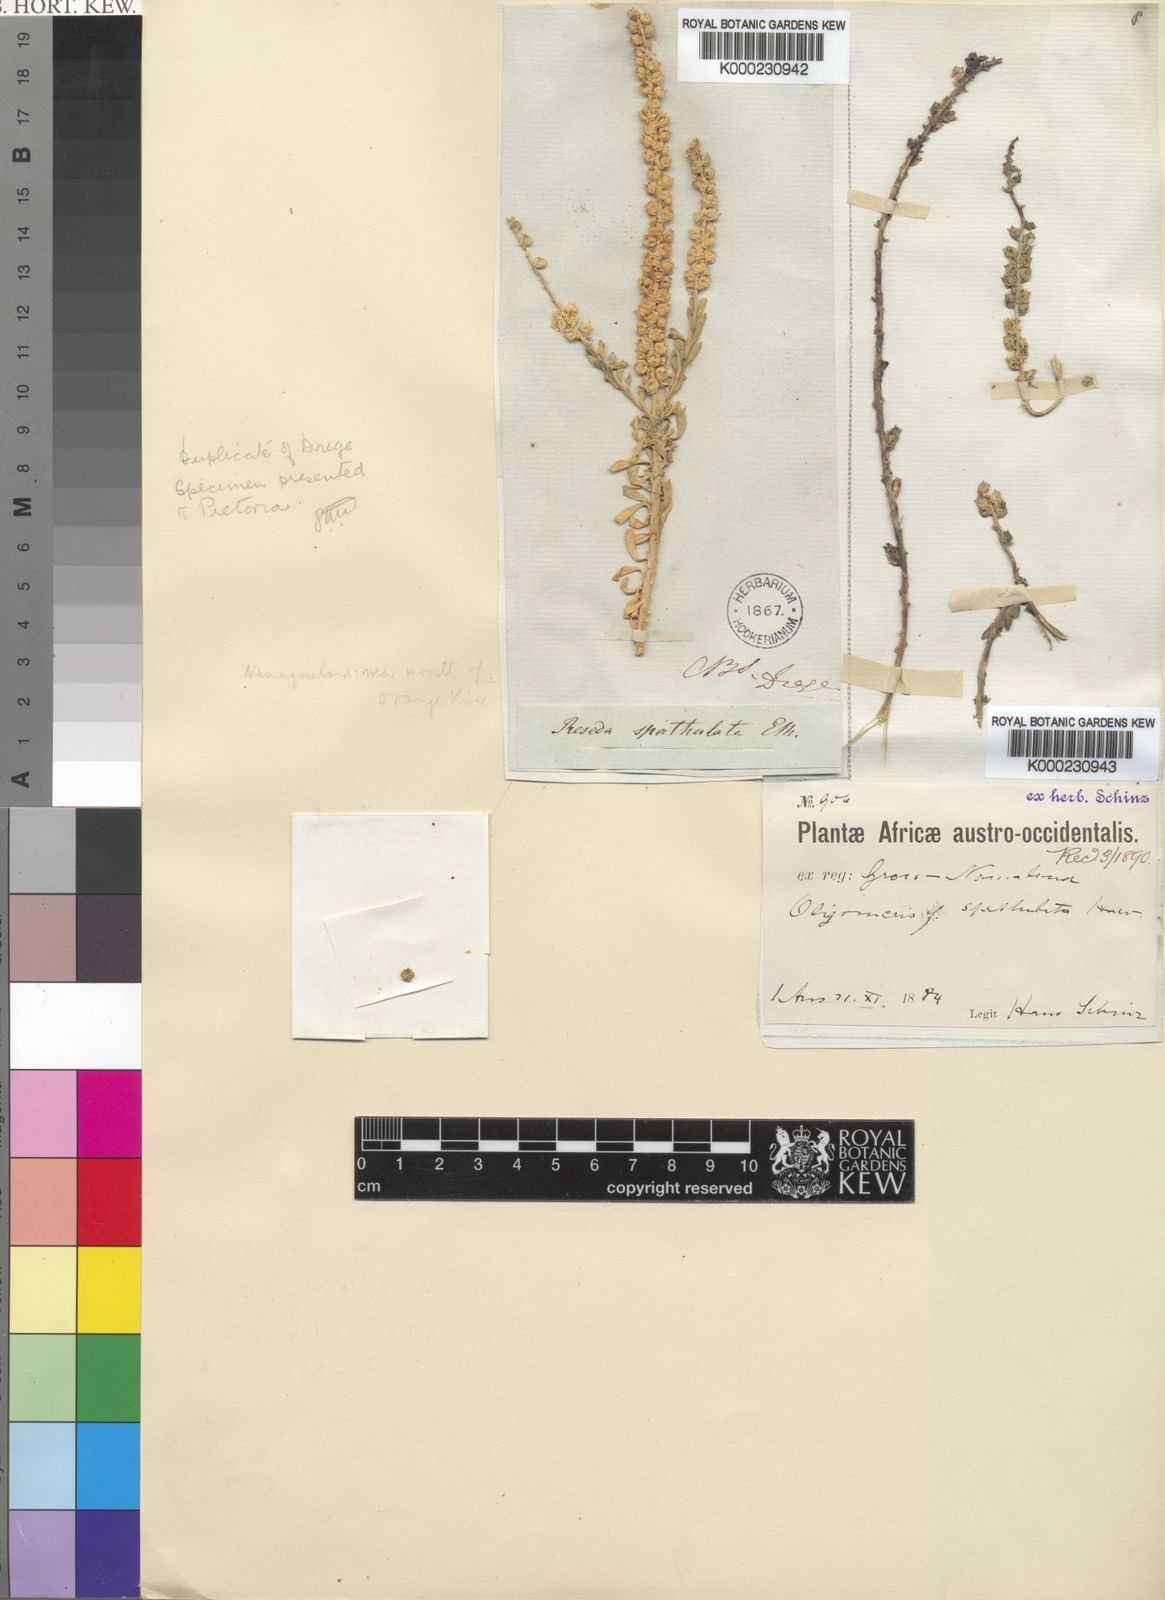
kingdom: Plantae
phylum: Tracheophyta
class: Magnoliopsida
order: Brassicales
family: Resedaceae
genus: Oligomeris
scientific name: Oligomeris dipetala
